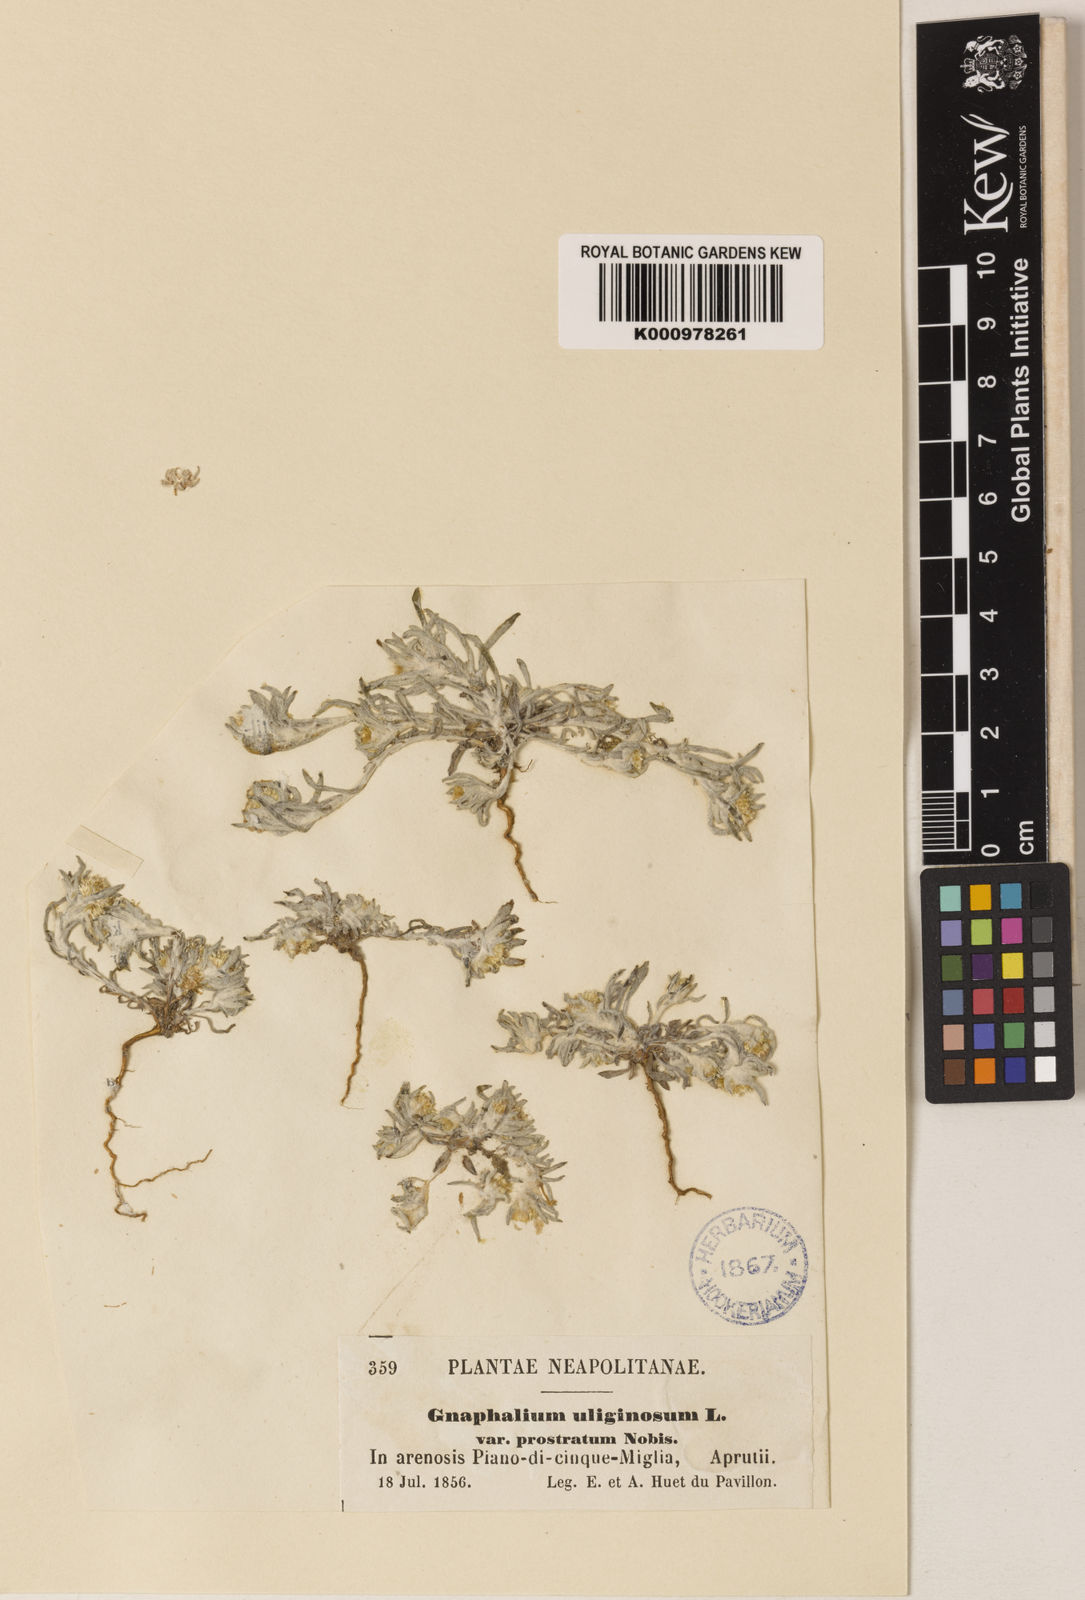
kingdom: Plantae
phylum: Tracheophyta
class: Magnoliopsida
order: Asterales
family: Asteraceae
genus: Gnaphalium
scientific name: Gnaphalium uliginosum
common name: Marsh cudweed
